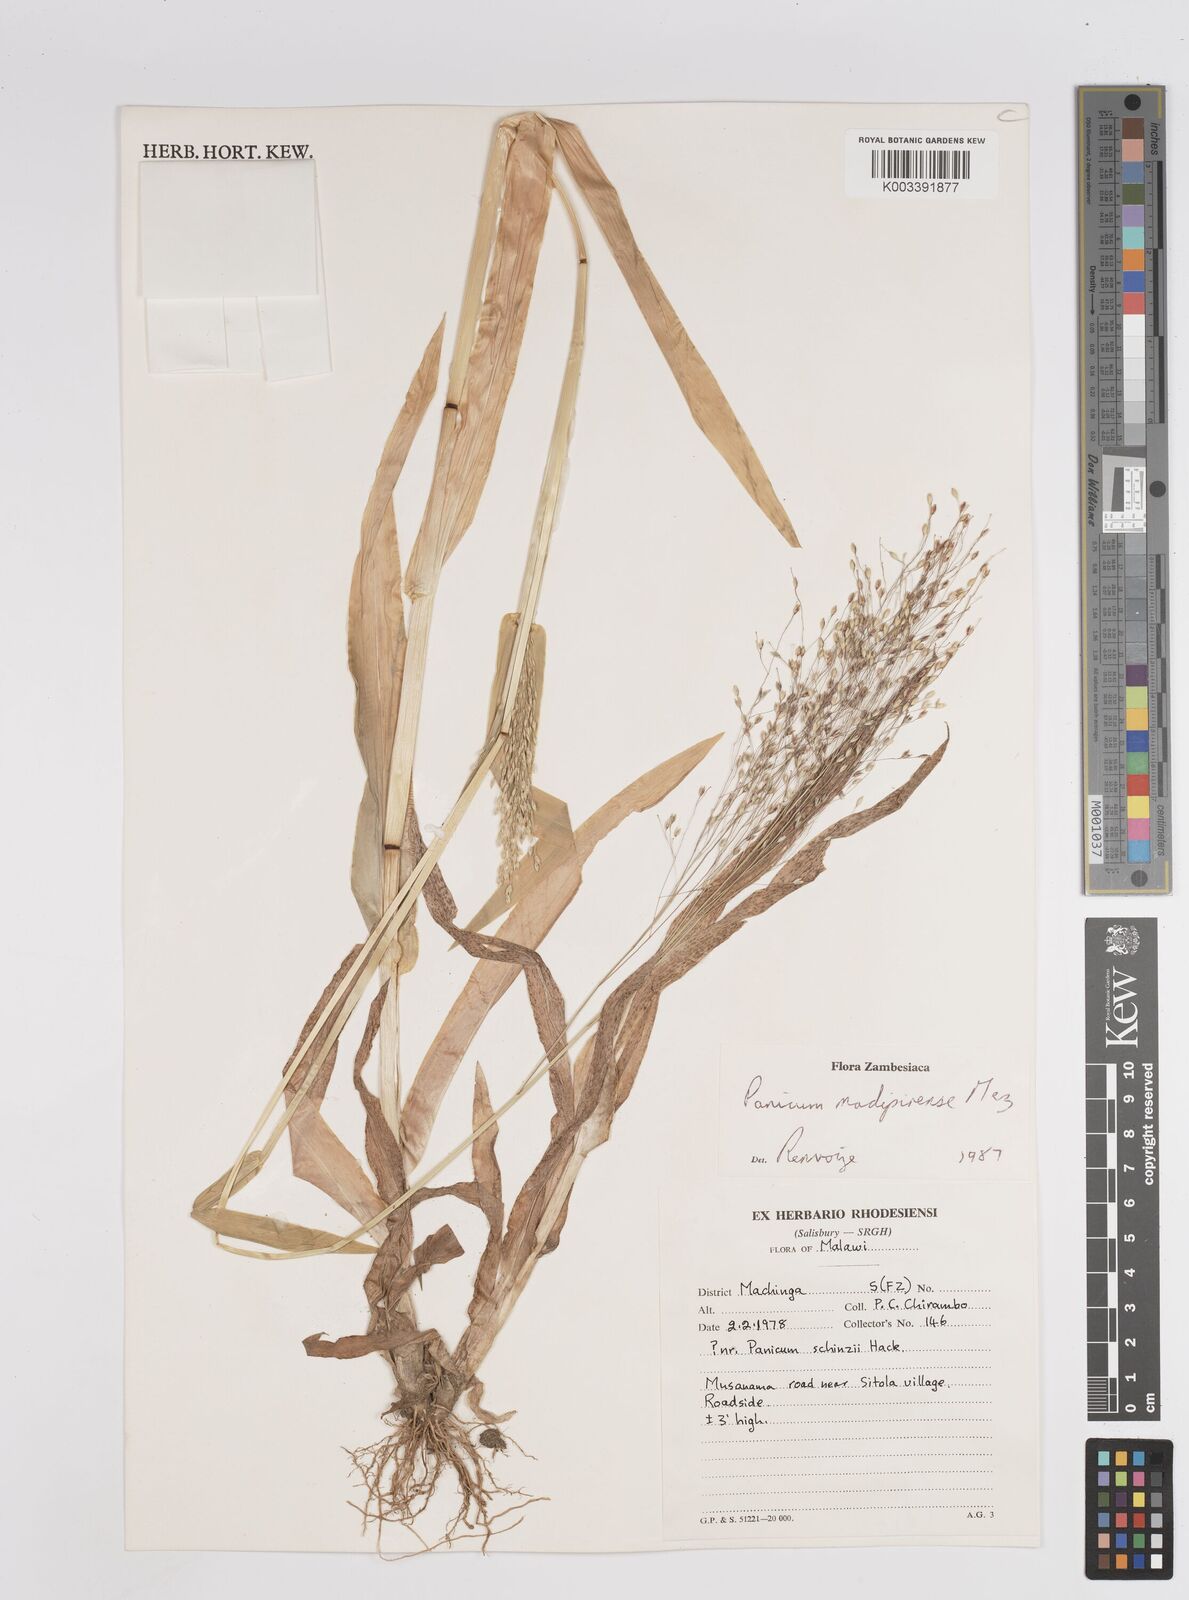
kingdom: Plantae
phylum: Tracheophyta
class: Liliopsida
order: Poales
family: Poaceae
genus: Panicum
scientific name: Panicum madipirense
